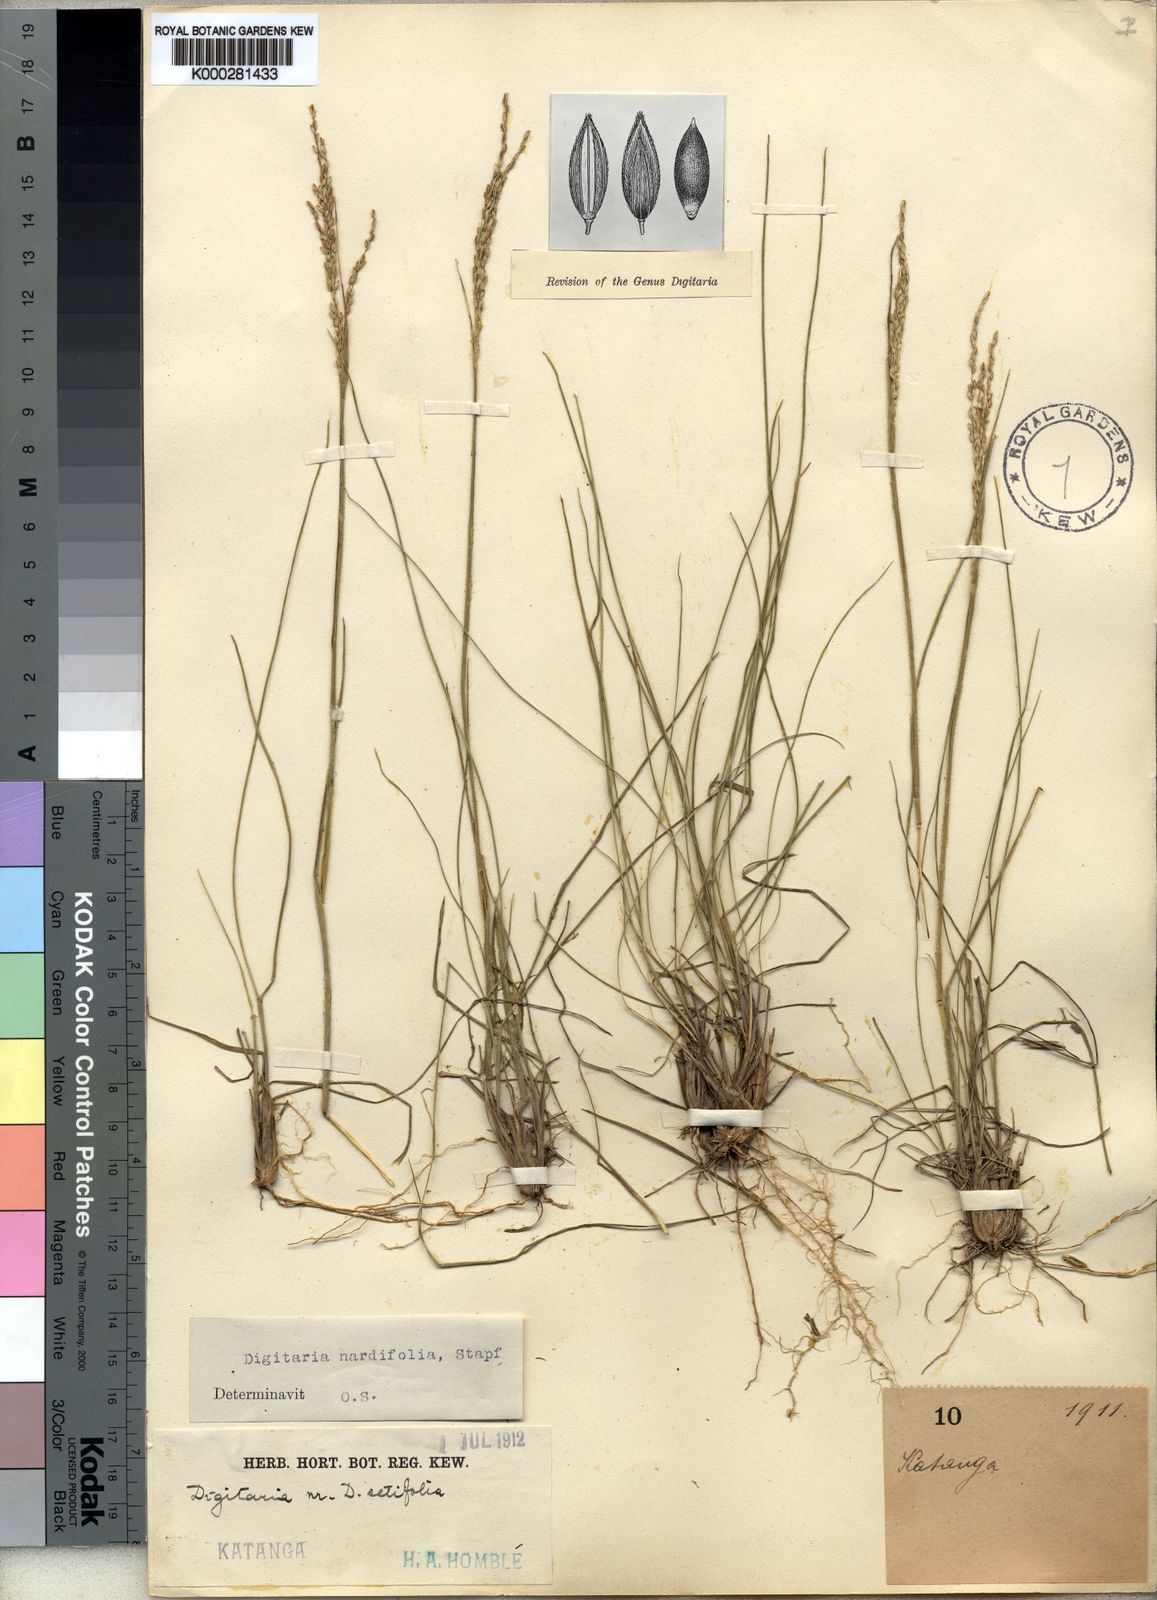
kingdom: Plantae
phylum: Tracheophyta
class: Liliopsida
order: Poales
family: Poaceae
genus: Digitaria
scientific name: Digitaria setifolia
